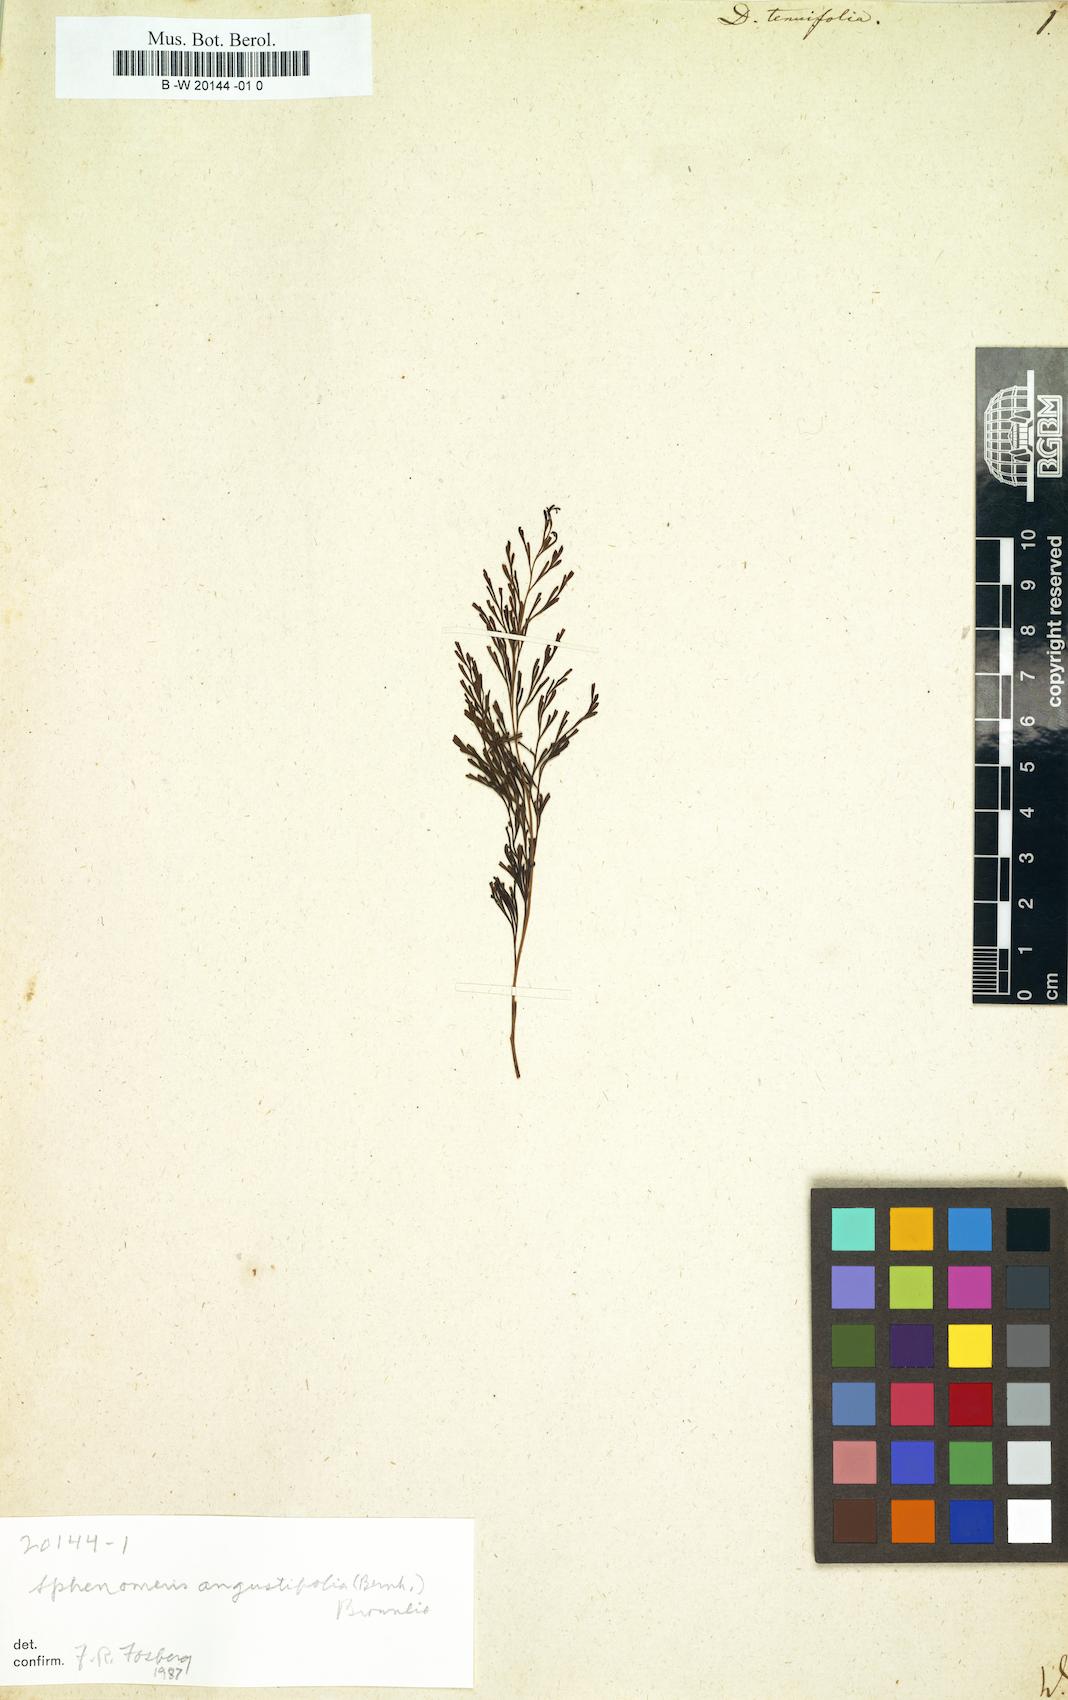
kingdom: Plantae
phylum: Tracheophyta
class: Polypodiopsida
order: Polypodiales
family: Lindsaeaceae
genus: Odontosoria
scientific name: Odontosoria chinensis
